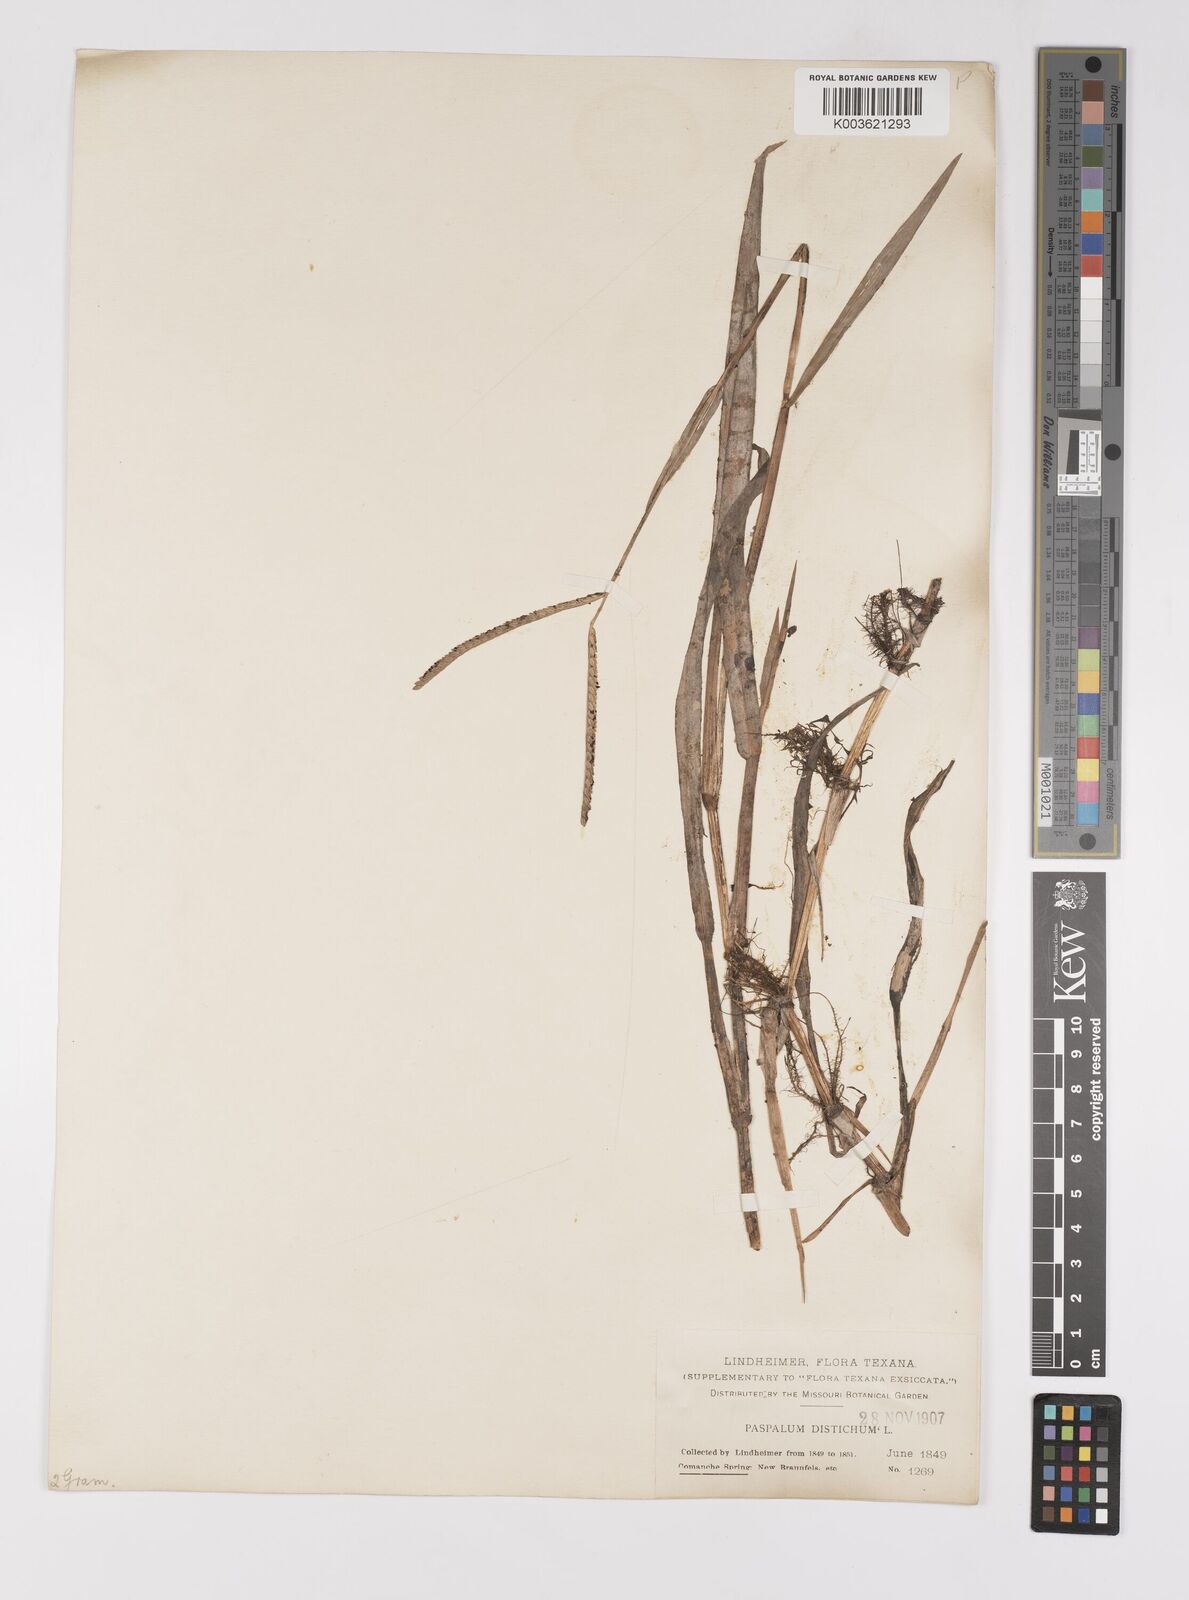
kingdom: Plantae
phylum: Tracheophyta
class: Liliopsida
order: Poales
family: Poaceae
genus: Paspalum
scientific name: Paspalum distichum
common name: Knotgrass
